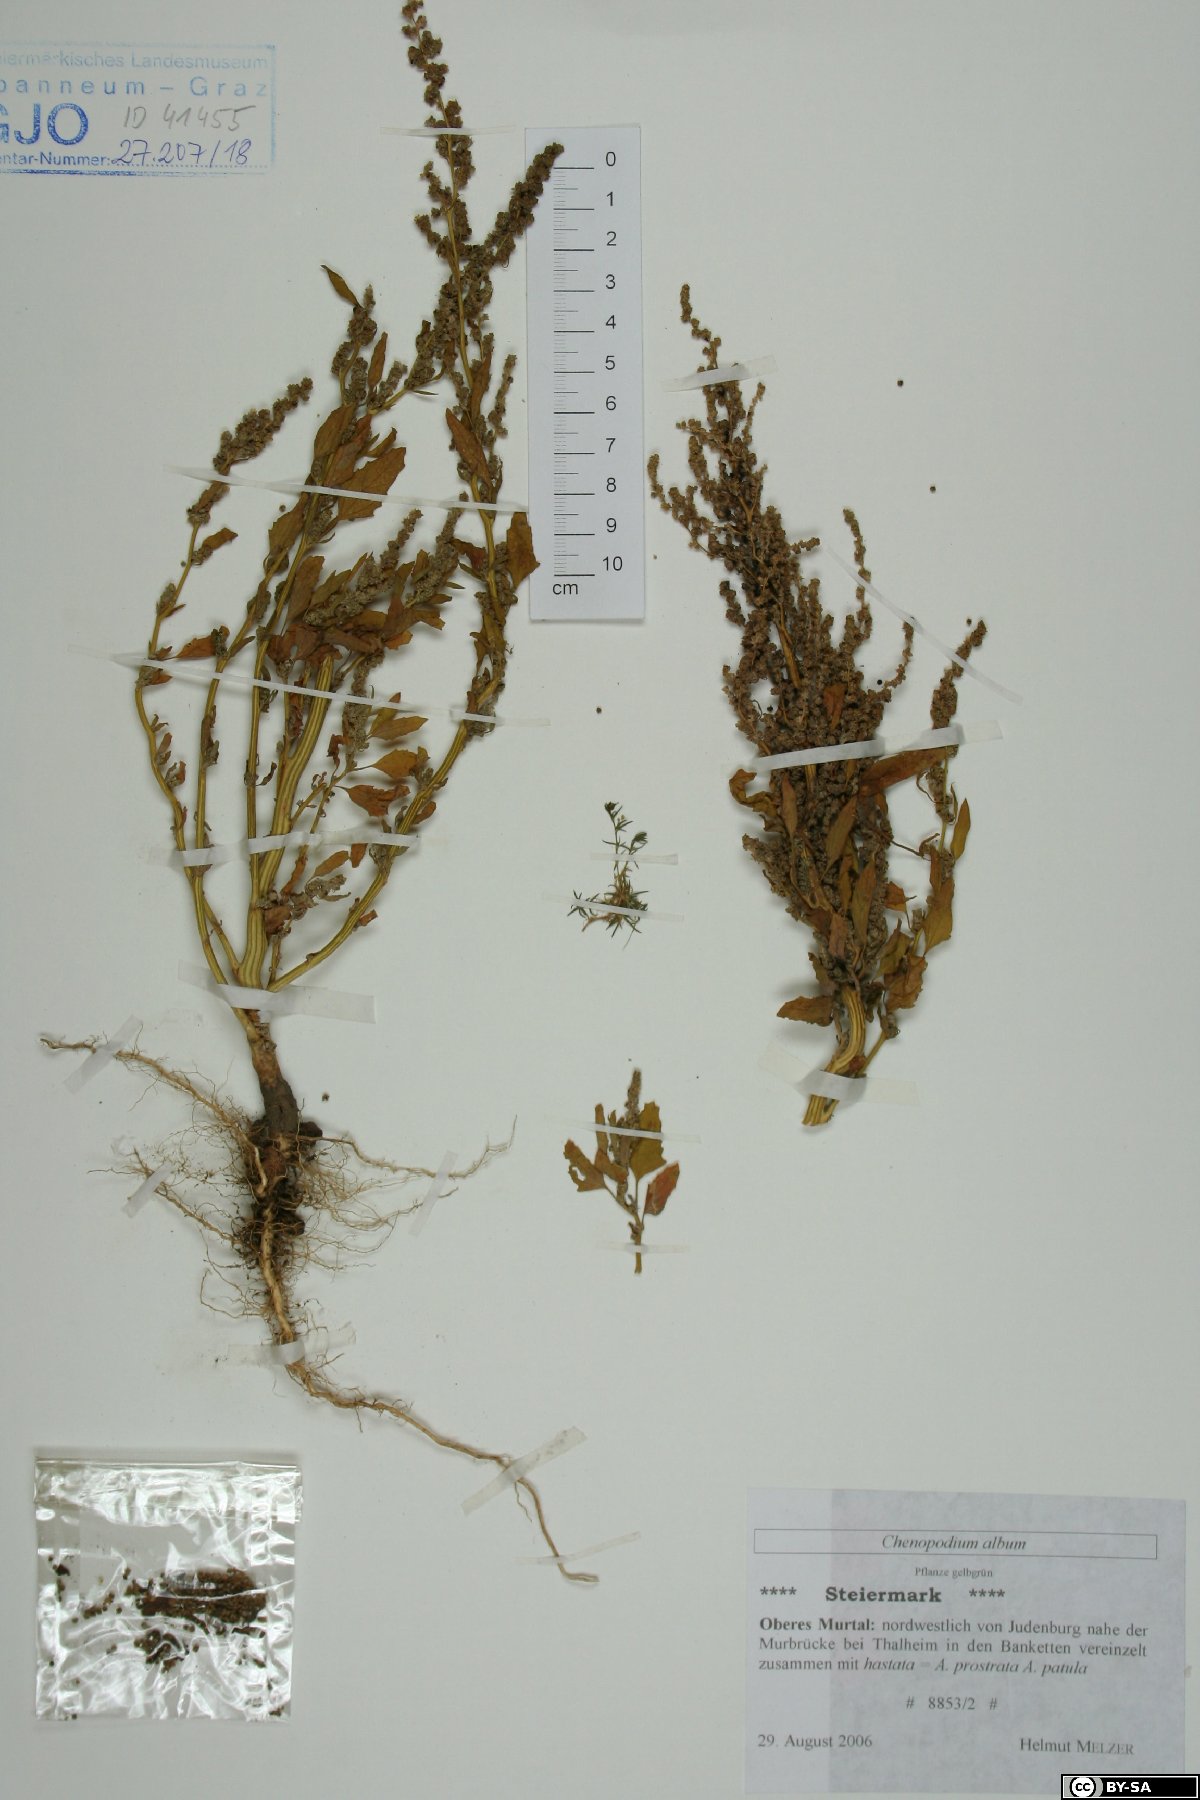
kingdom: Plantae
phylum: Tracheophyta
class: Magnoliopsida
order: Caryophyllales
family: Amaranthaceae
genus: Chenopodium
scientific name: Chenopodium album
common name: Fat-hen
